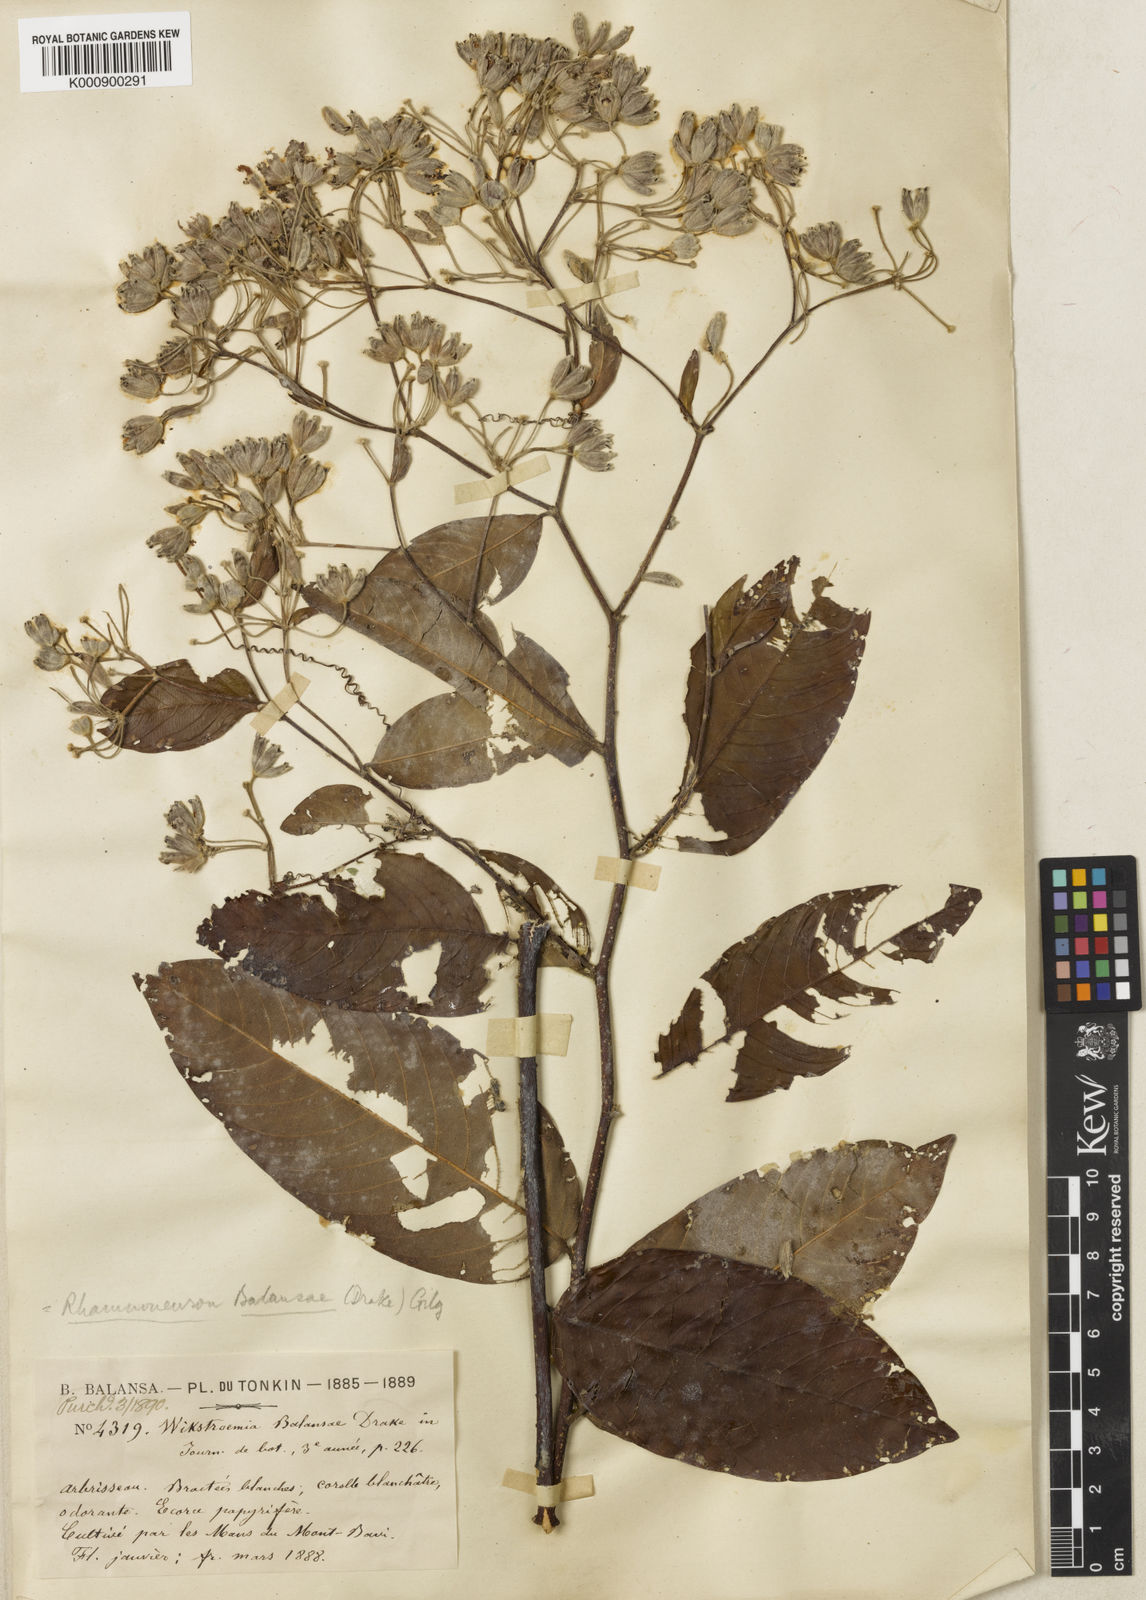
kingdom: Plantae
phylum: Tracheophyta
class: Magnoliopsida
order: Malvales
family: Thymelaeaceae
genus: Rhamnoneuron
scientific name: Rhamnoneuron balansae
